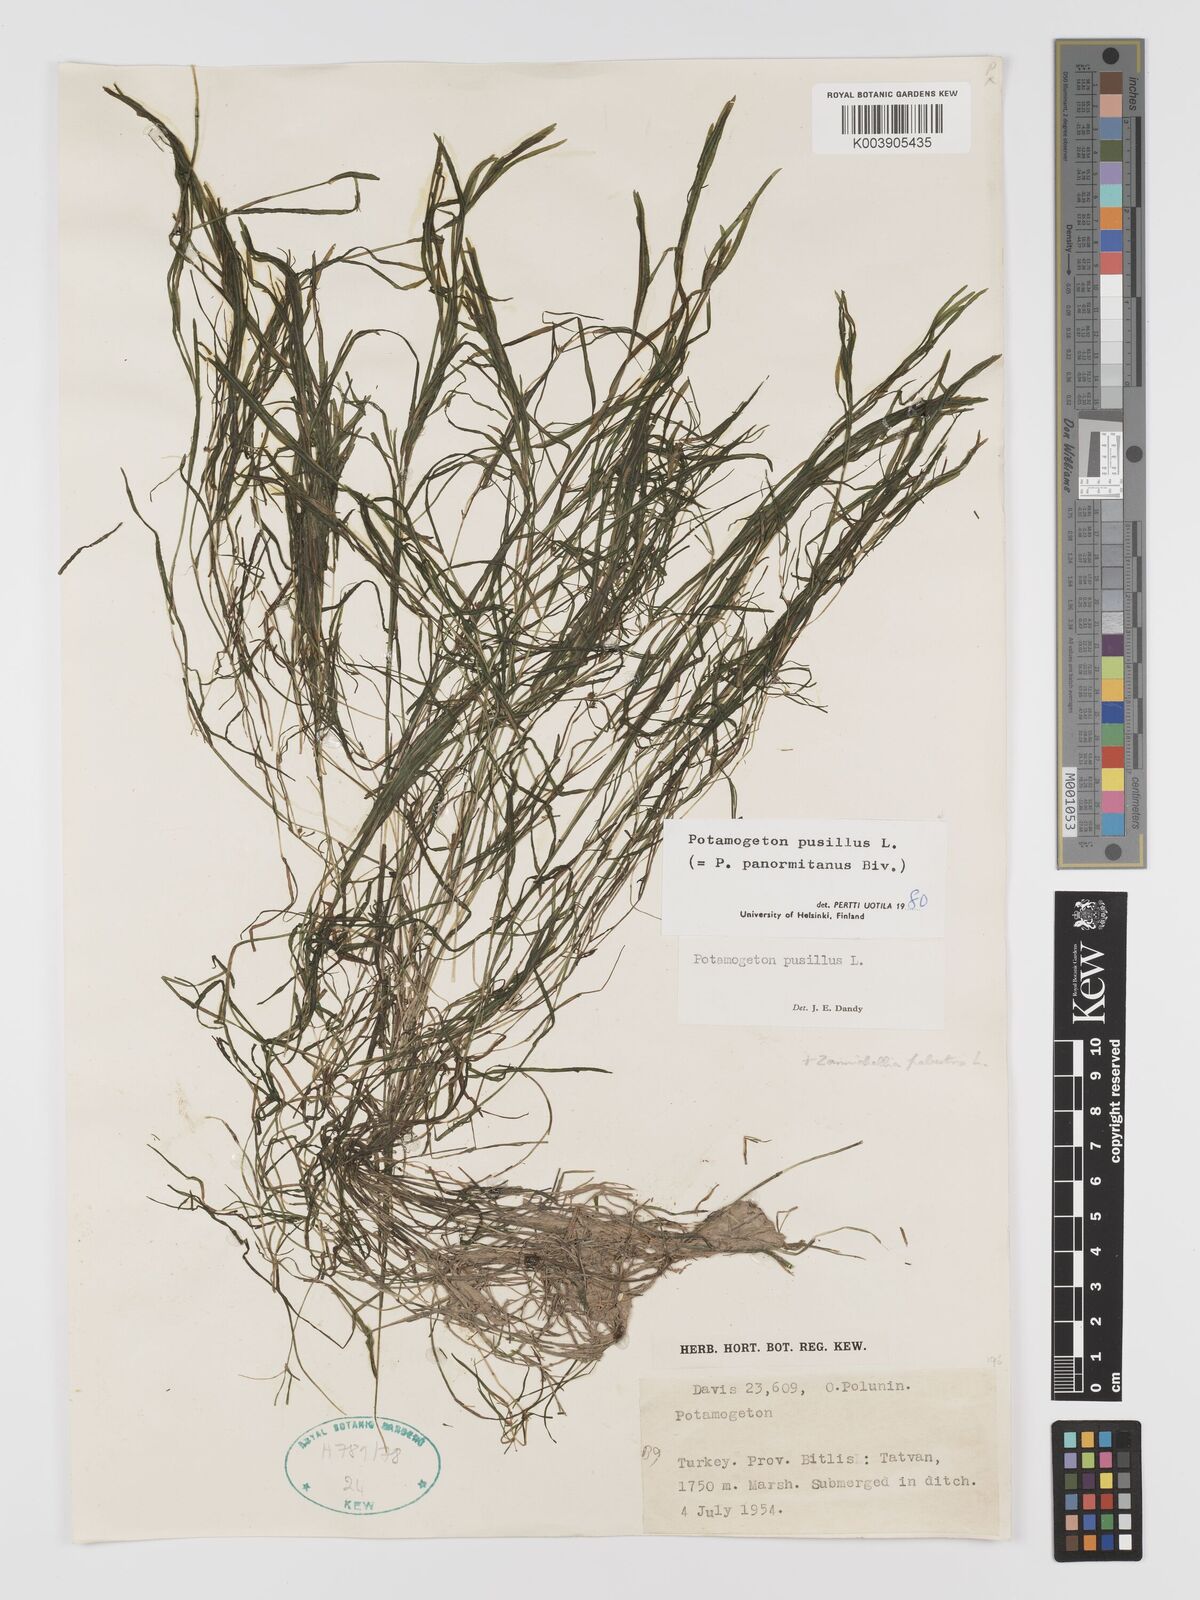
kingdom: Plantae
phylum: Tracheophyta
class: Liliopsida
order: Alismatales
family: Potamogetonaceae
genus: Potamogeton
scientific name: Potamogeton pusillus
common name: Lesser pondweed
